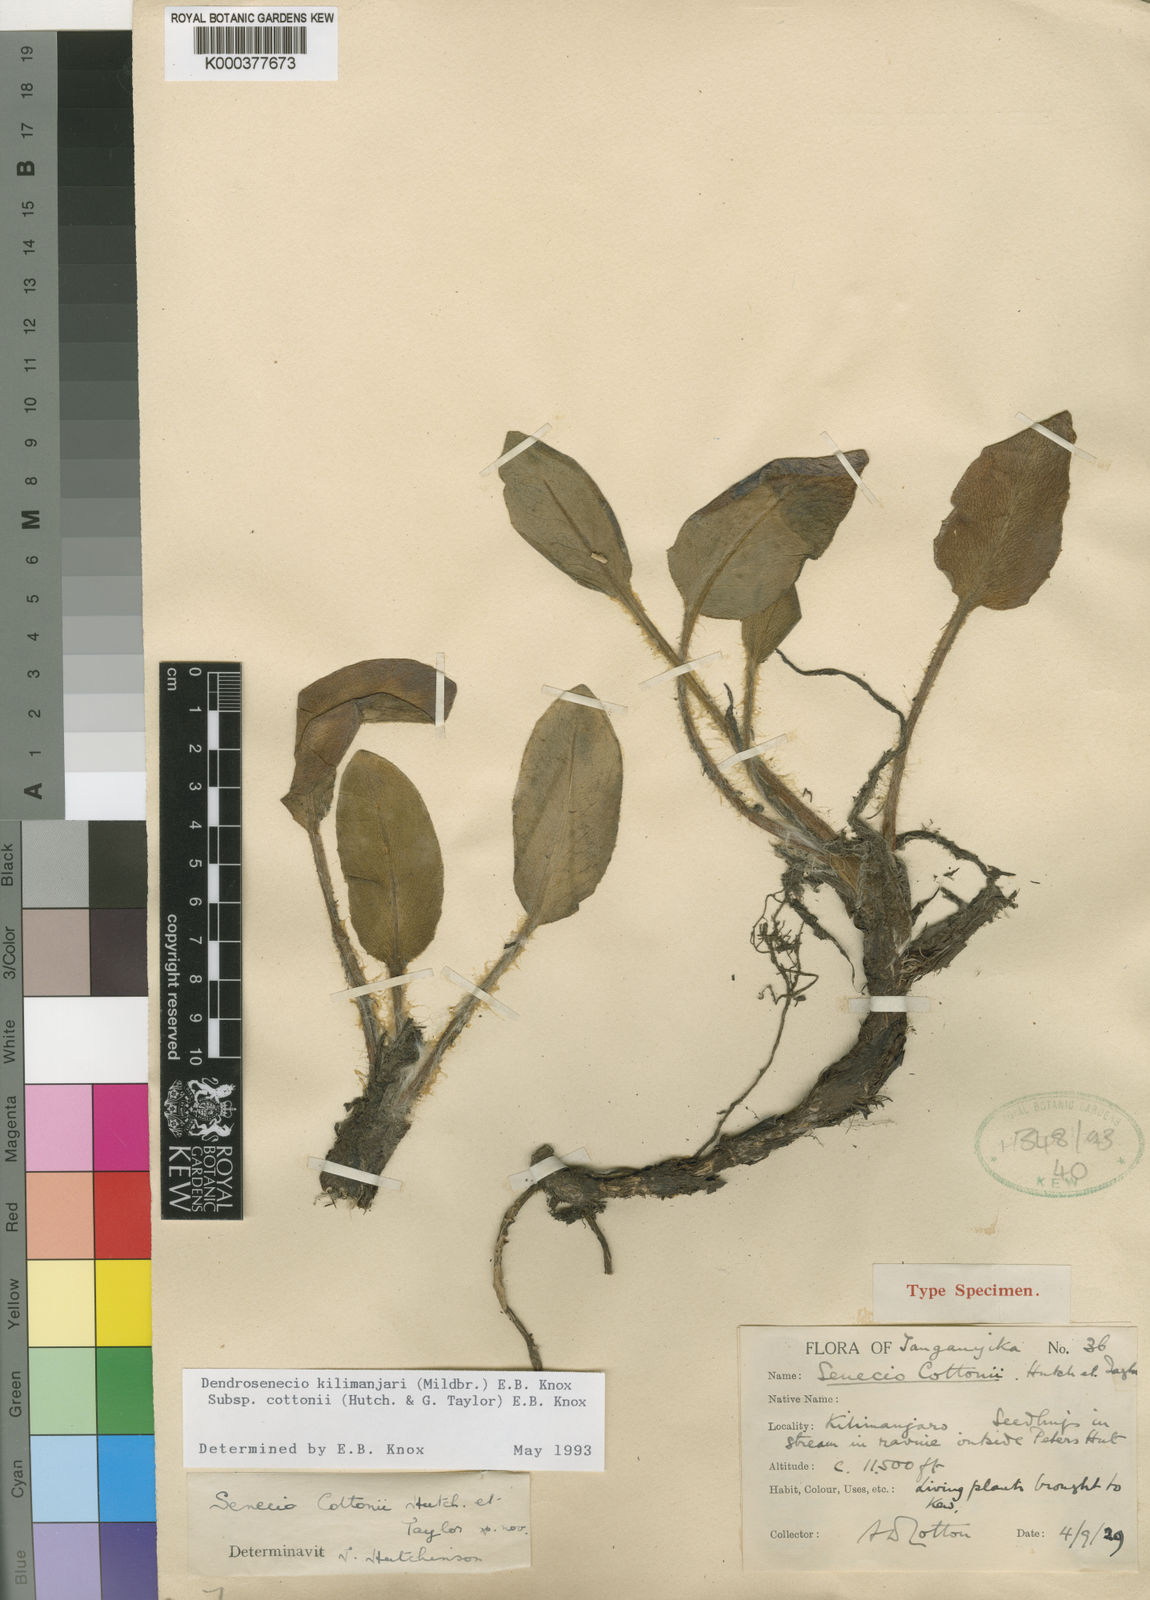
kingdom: Plantae
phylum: Tracheophyta
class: Magnoliopsida
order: Asterales
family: Asteraceae
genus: Dendrosenecio
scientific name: Dendrosenecio kilimanjari
